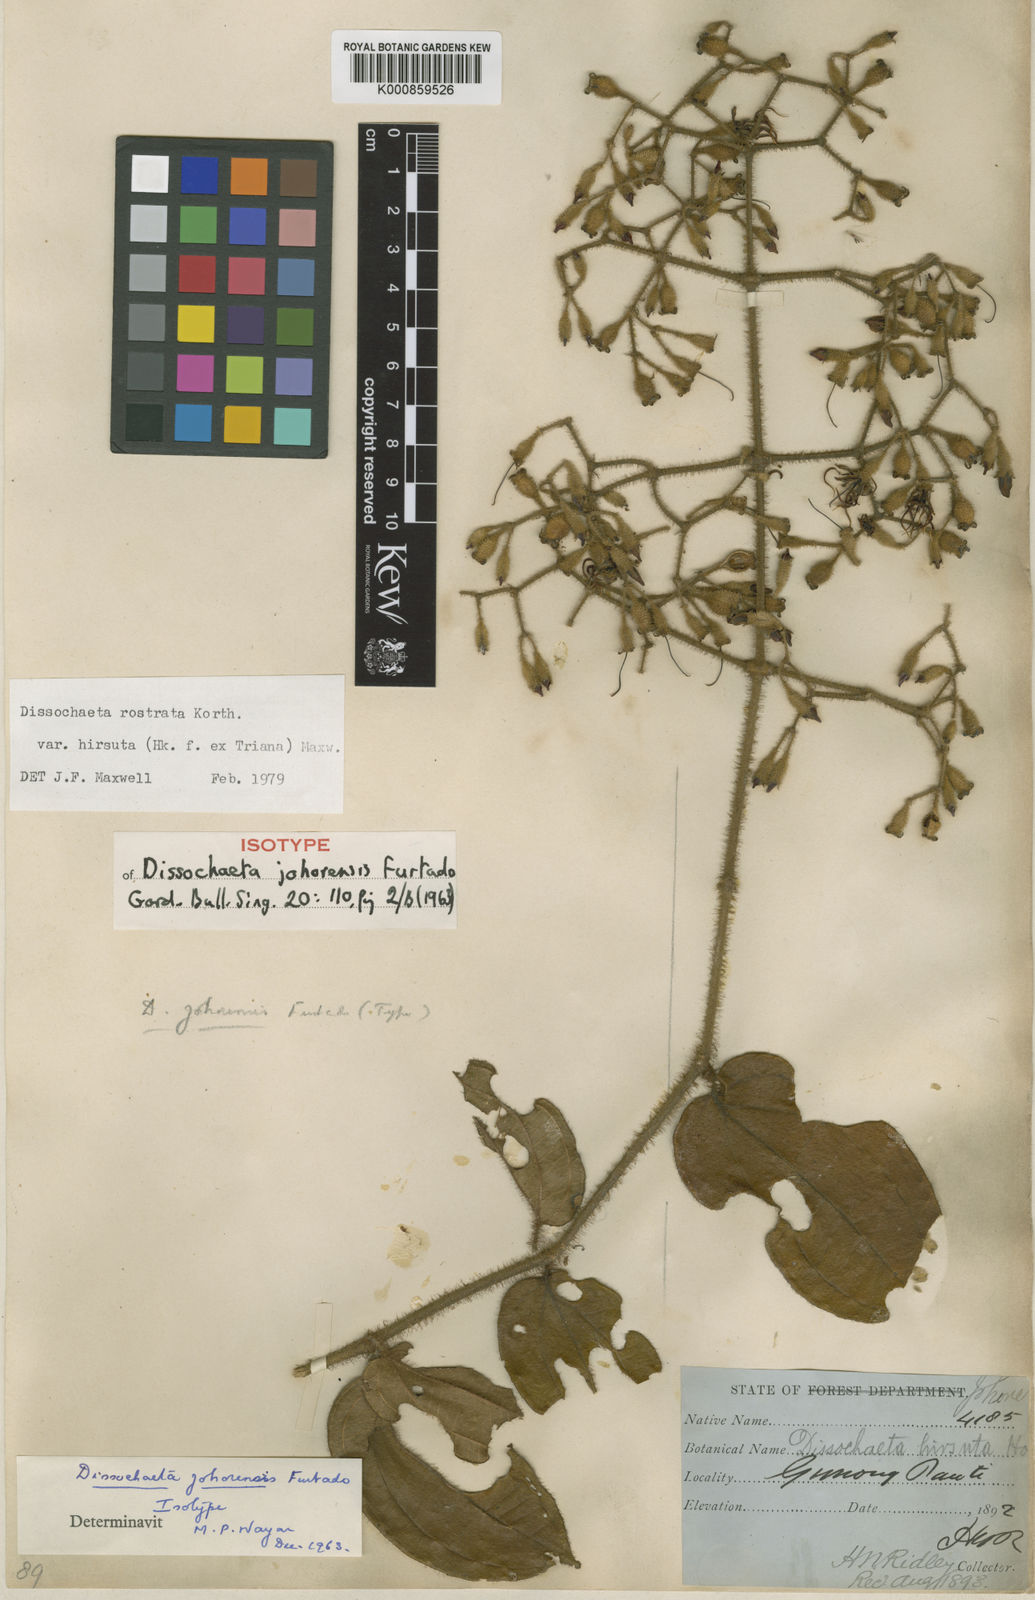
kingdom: Plantae
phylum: Tracheophyta
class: Magnoliopsida
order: Myrtales
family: Melastomataceae
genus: Macrolenes
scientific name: Macrolenes rostrata
